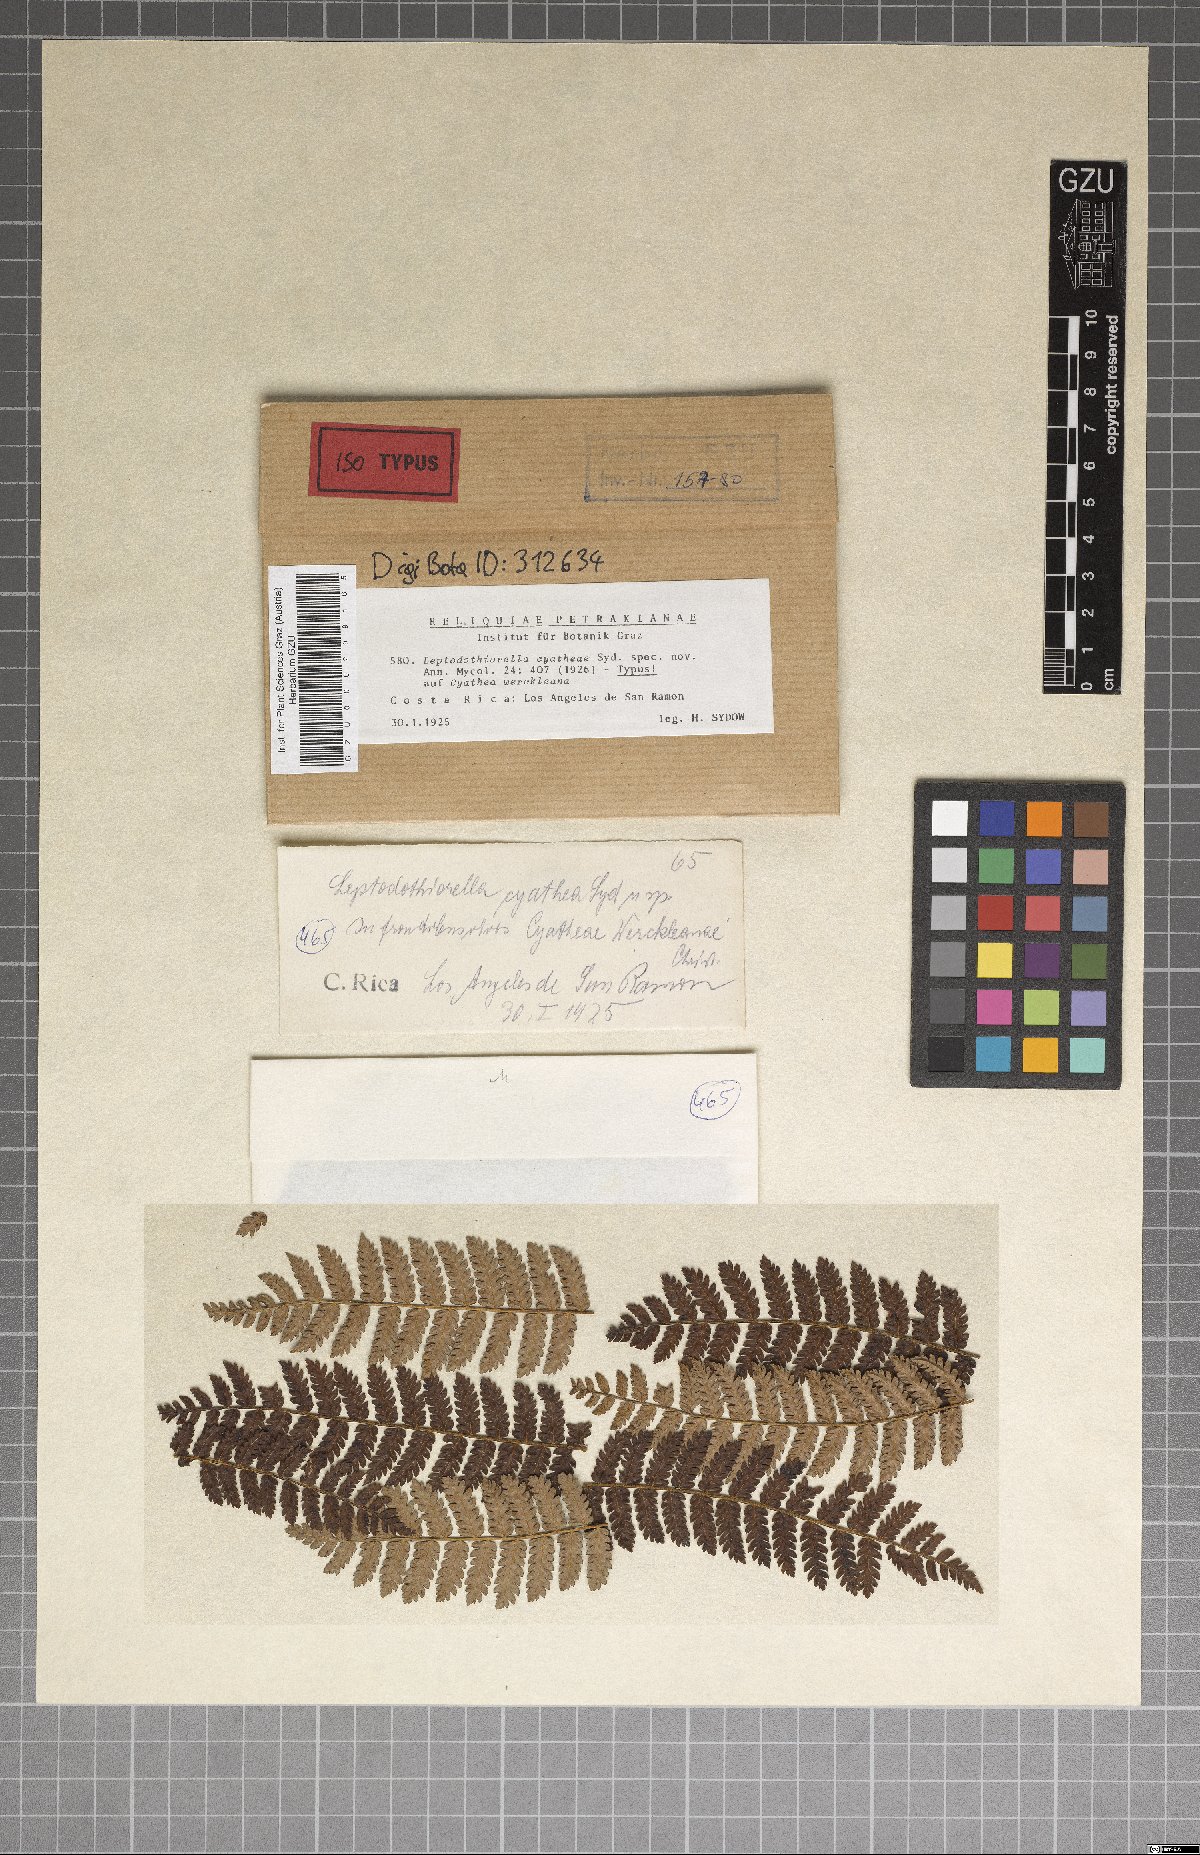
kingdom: Fungi
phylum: Ascomycota
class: Dothideomycetes
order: Botryosphaeriales
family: Botryosphaeriaceae
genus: Leptodothiorella
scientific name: Leptodothiorella cyathea
